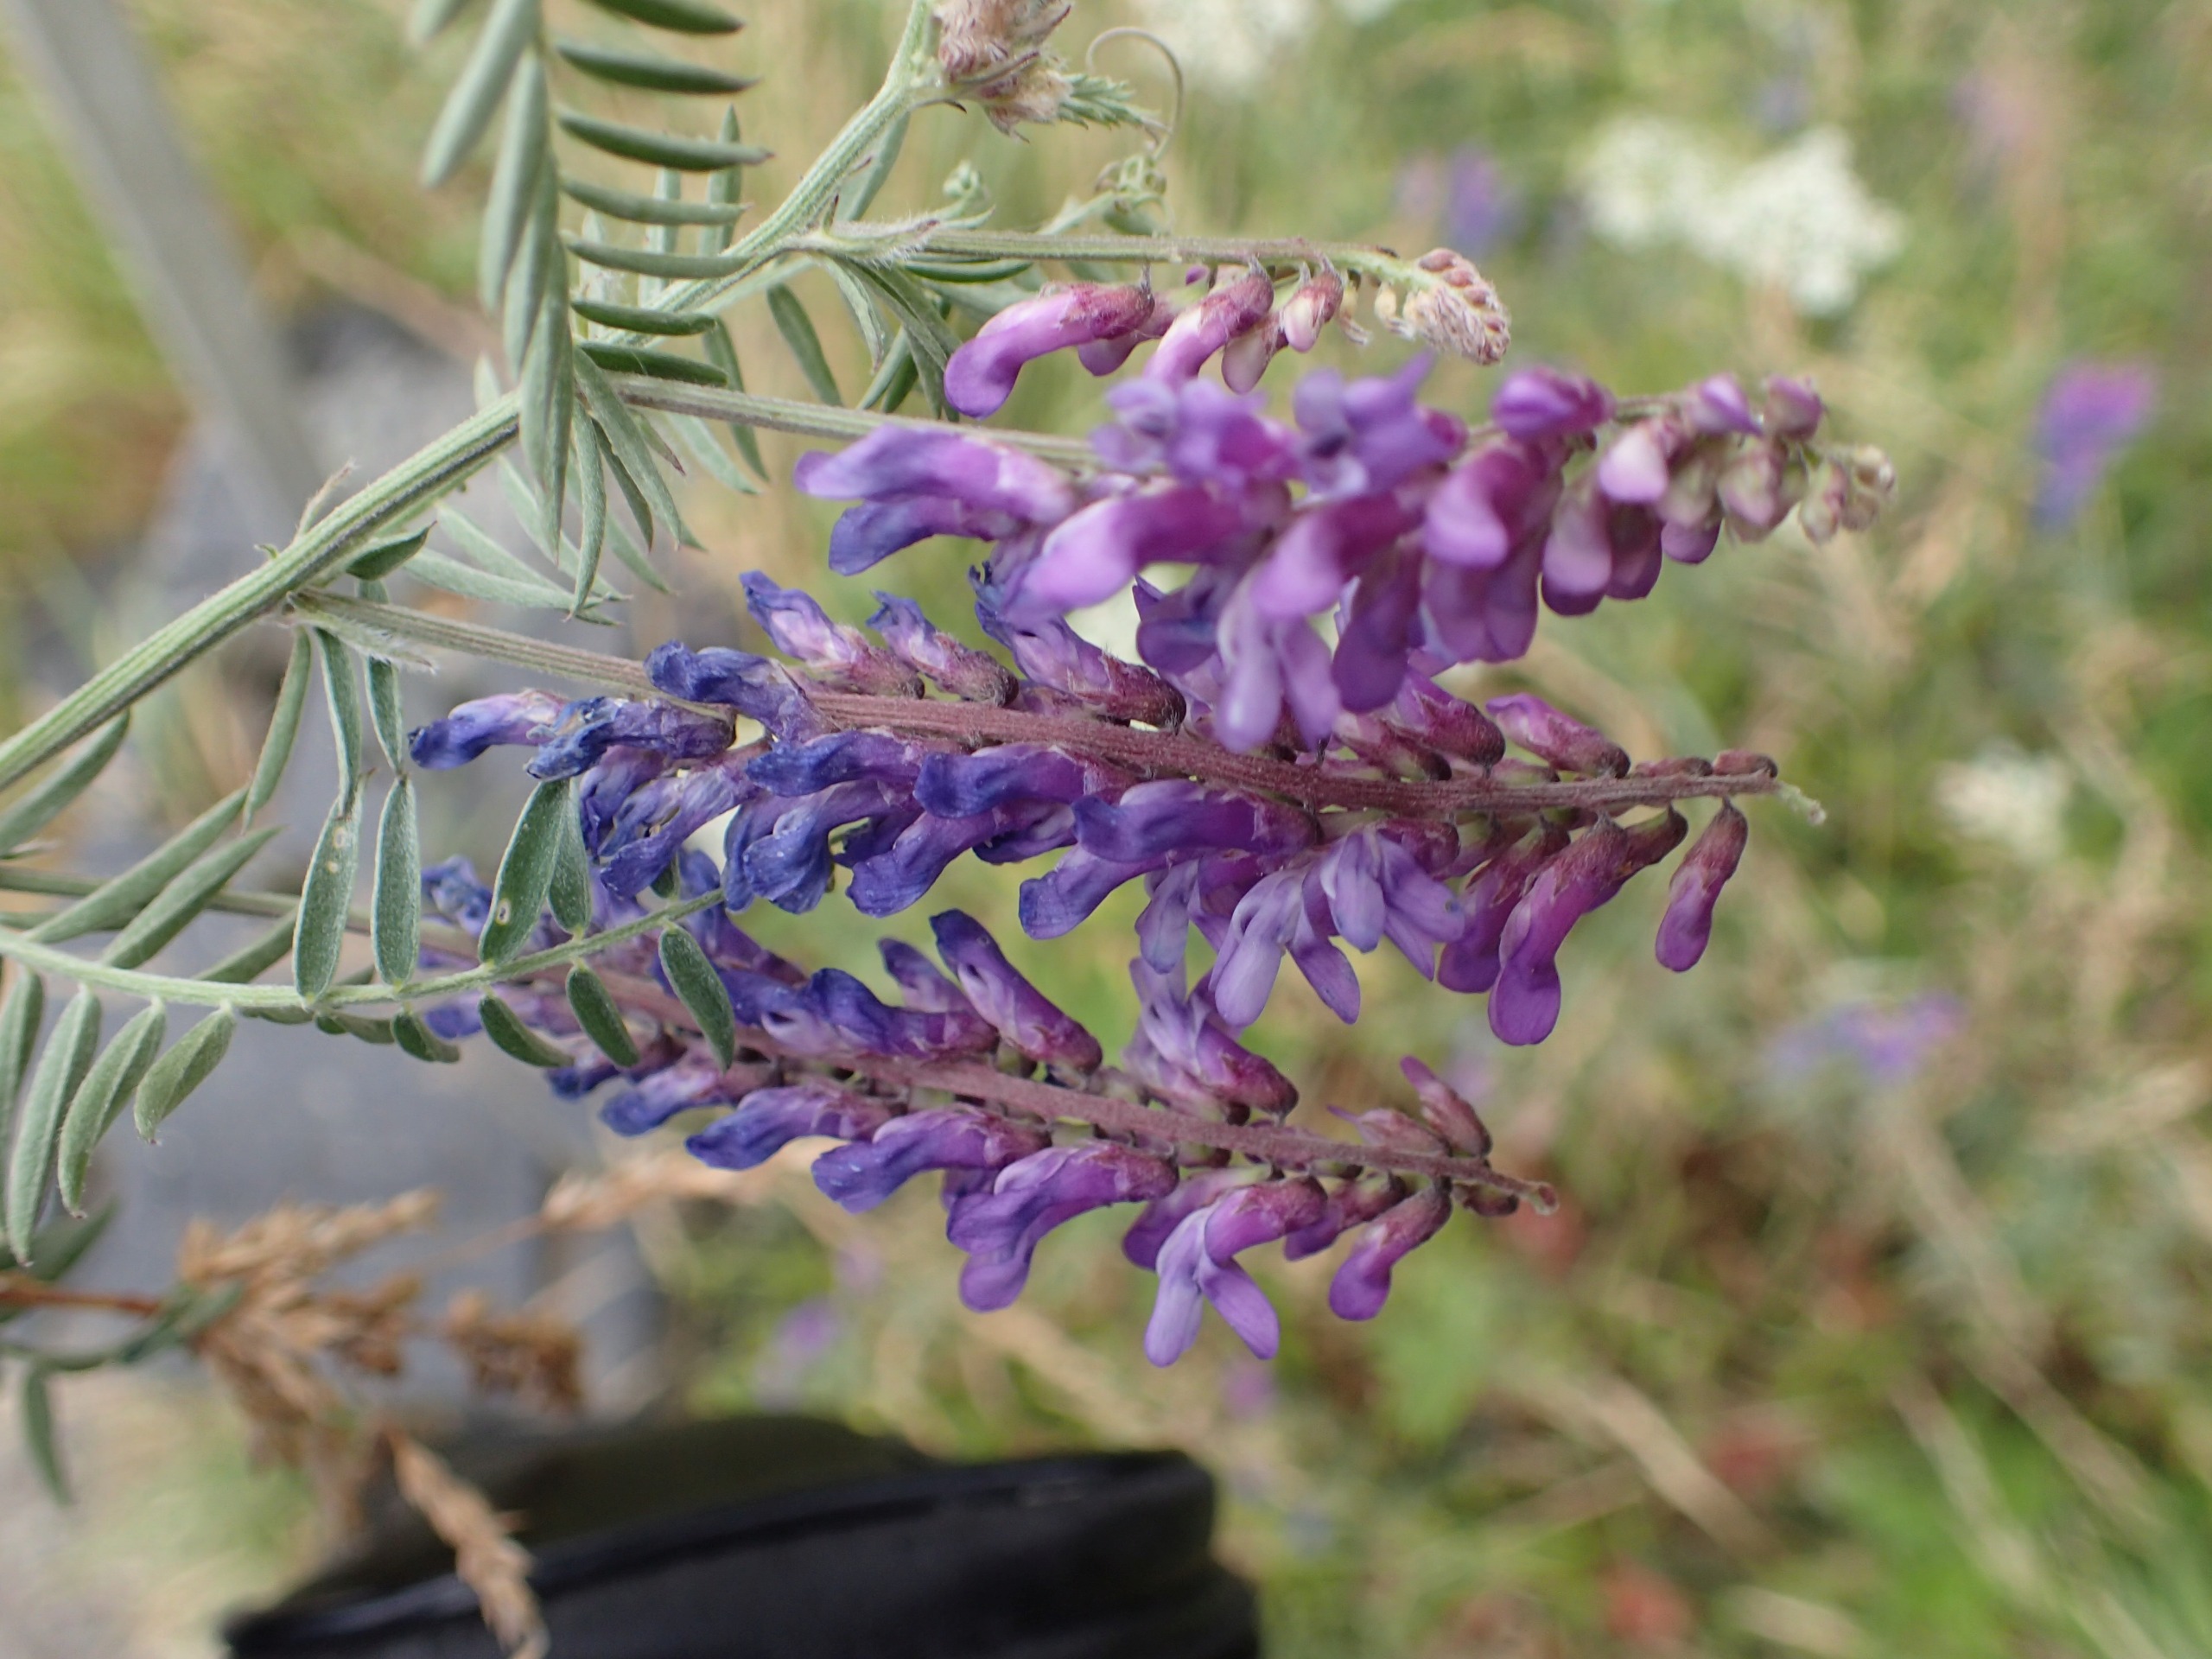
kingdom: Plantae
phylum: Tracheophyta
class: Magnoliopsida
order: Fabales
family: Fabaceae
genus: Vicia
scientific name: Vicia cracca
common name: Muse-vikke
